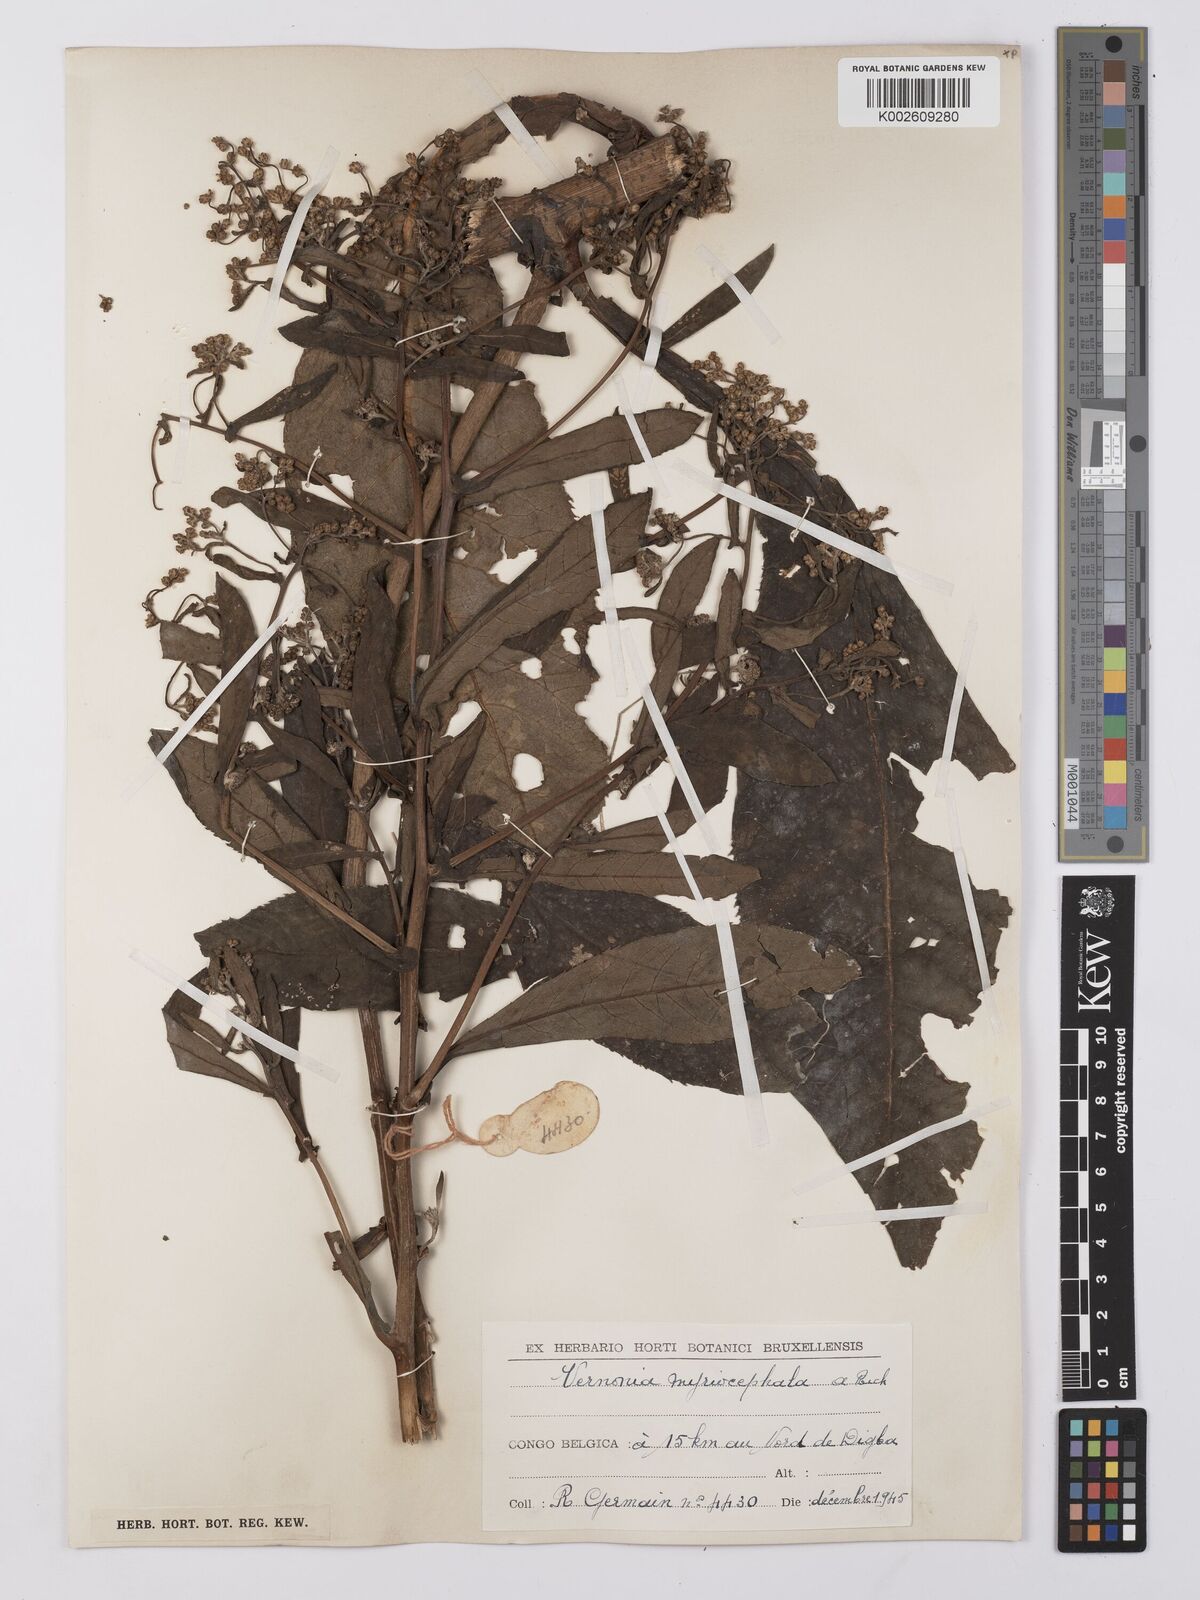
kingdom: Plantae
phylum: Tracheophyta
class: Magnoliopsida
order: Asterales
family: Asteraceae
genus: Gymnanthemum
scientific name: Gymnanthemum theophrastifolium
